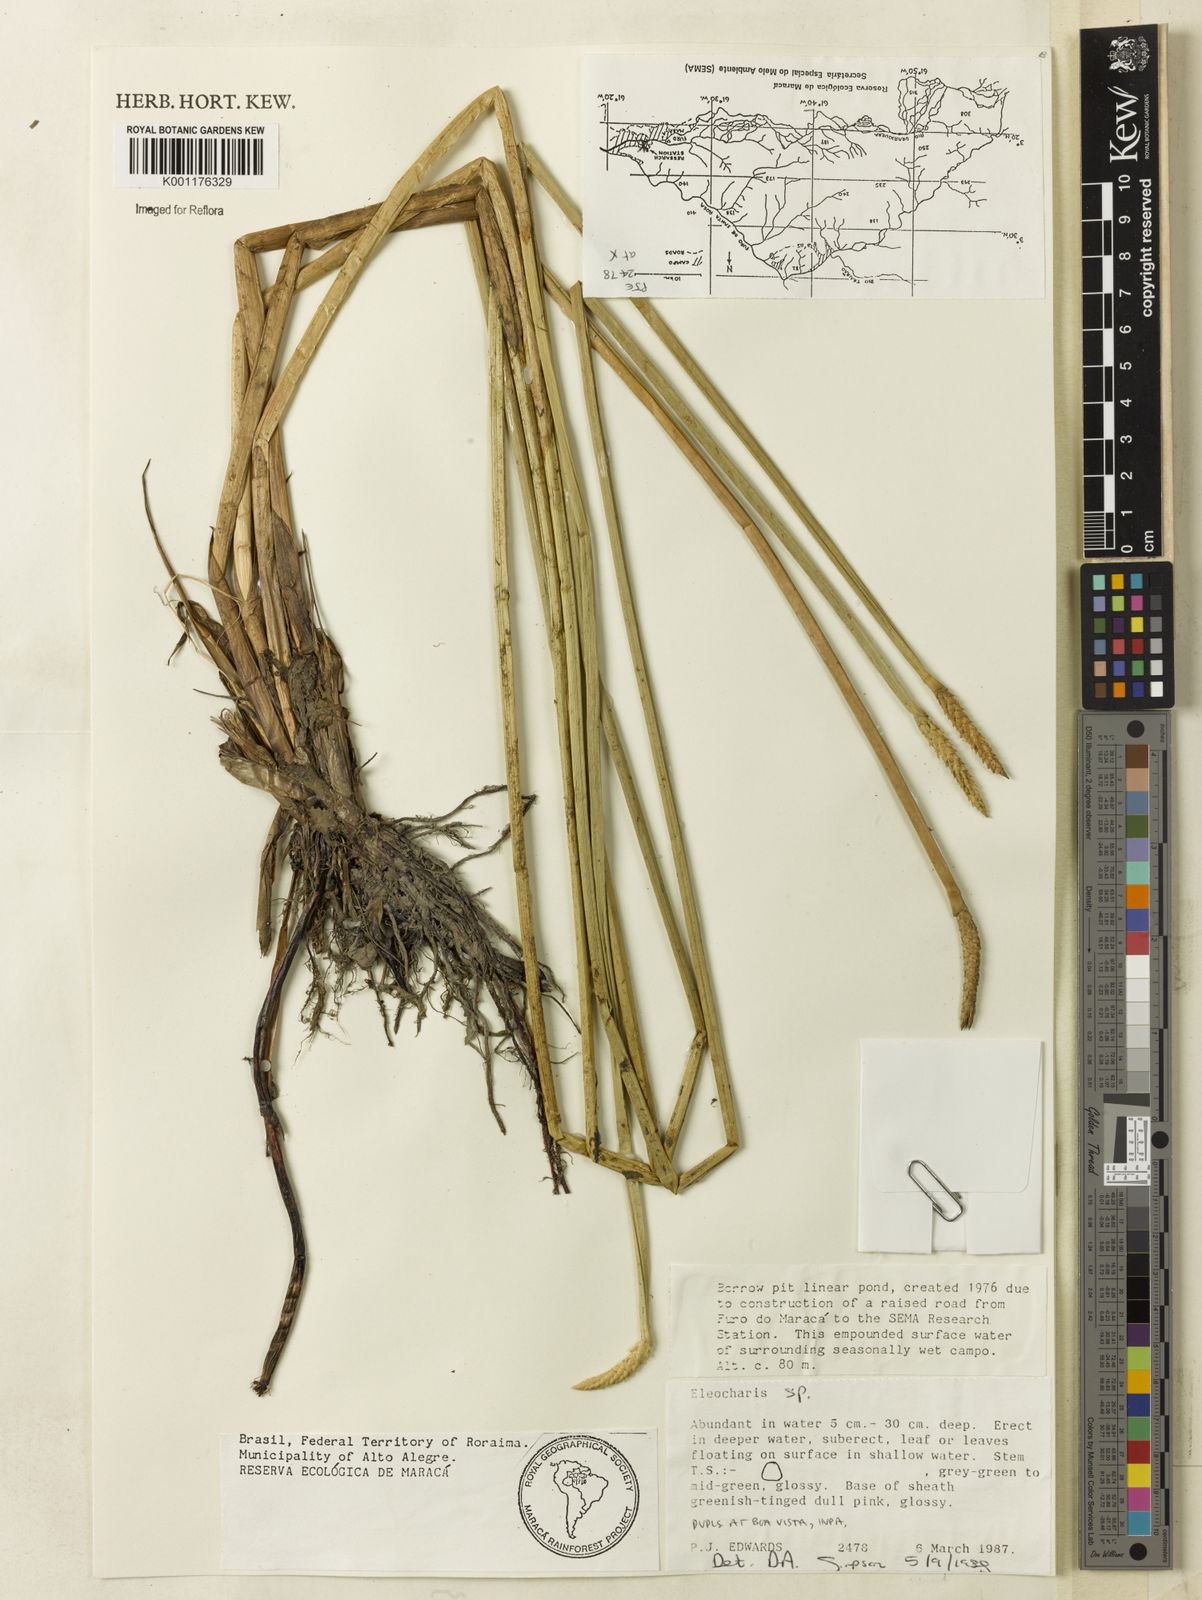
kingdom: Plantae
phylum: Tracheophyta
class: Liliopsida
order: Poales
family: Cyperaceae
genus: Eleocharis
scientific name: Eleocharis
